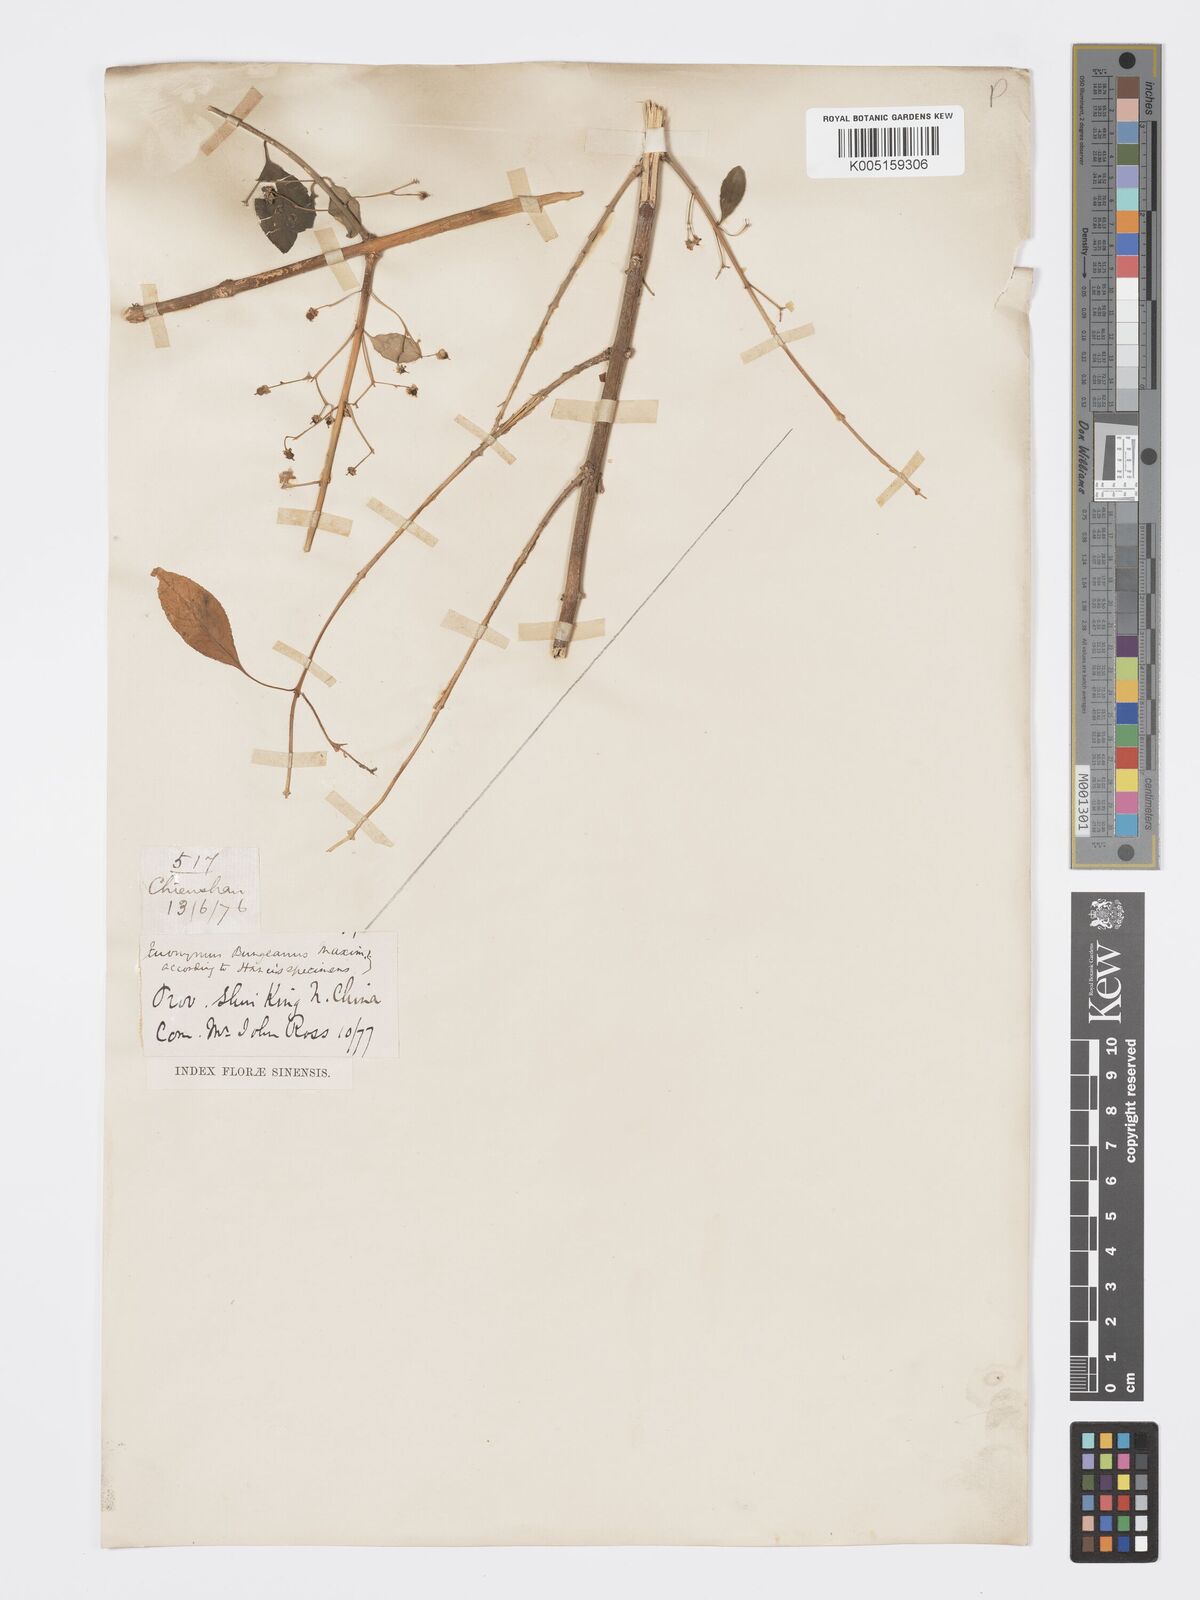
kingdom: Plantae
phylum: Tracheophyta
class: Magnoliopsida
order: Celastrales
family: Celastraceae
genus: Euonymus
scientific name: Euonymus maackii
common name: Hamilton's spindletree
